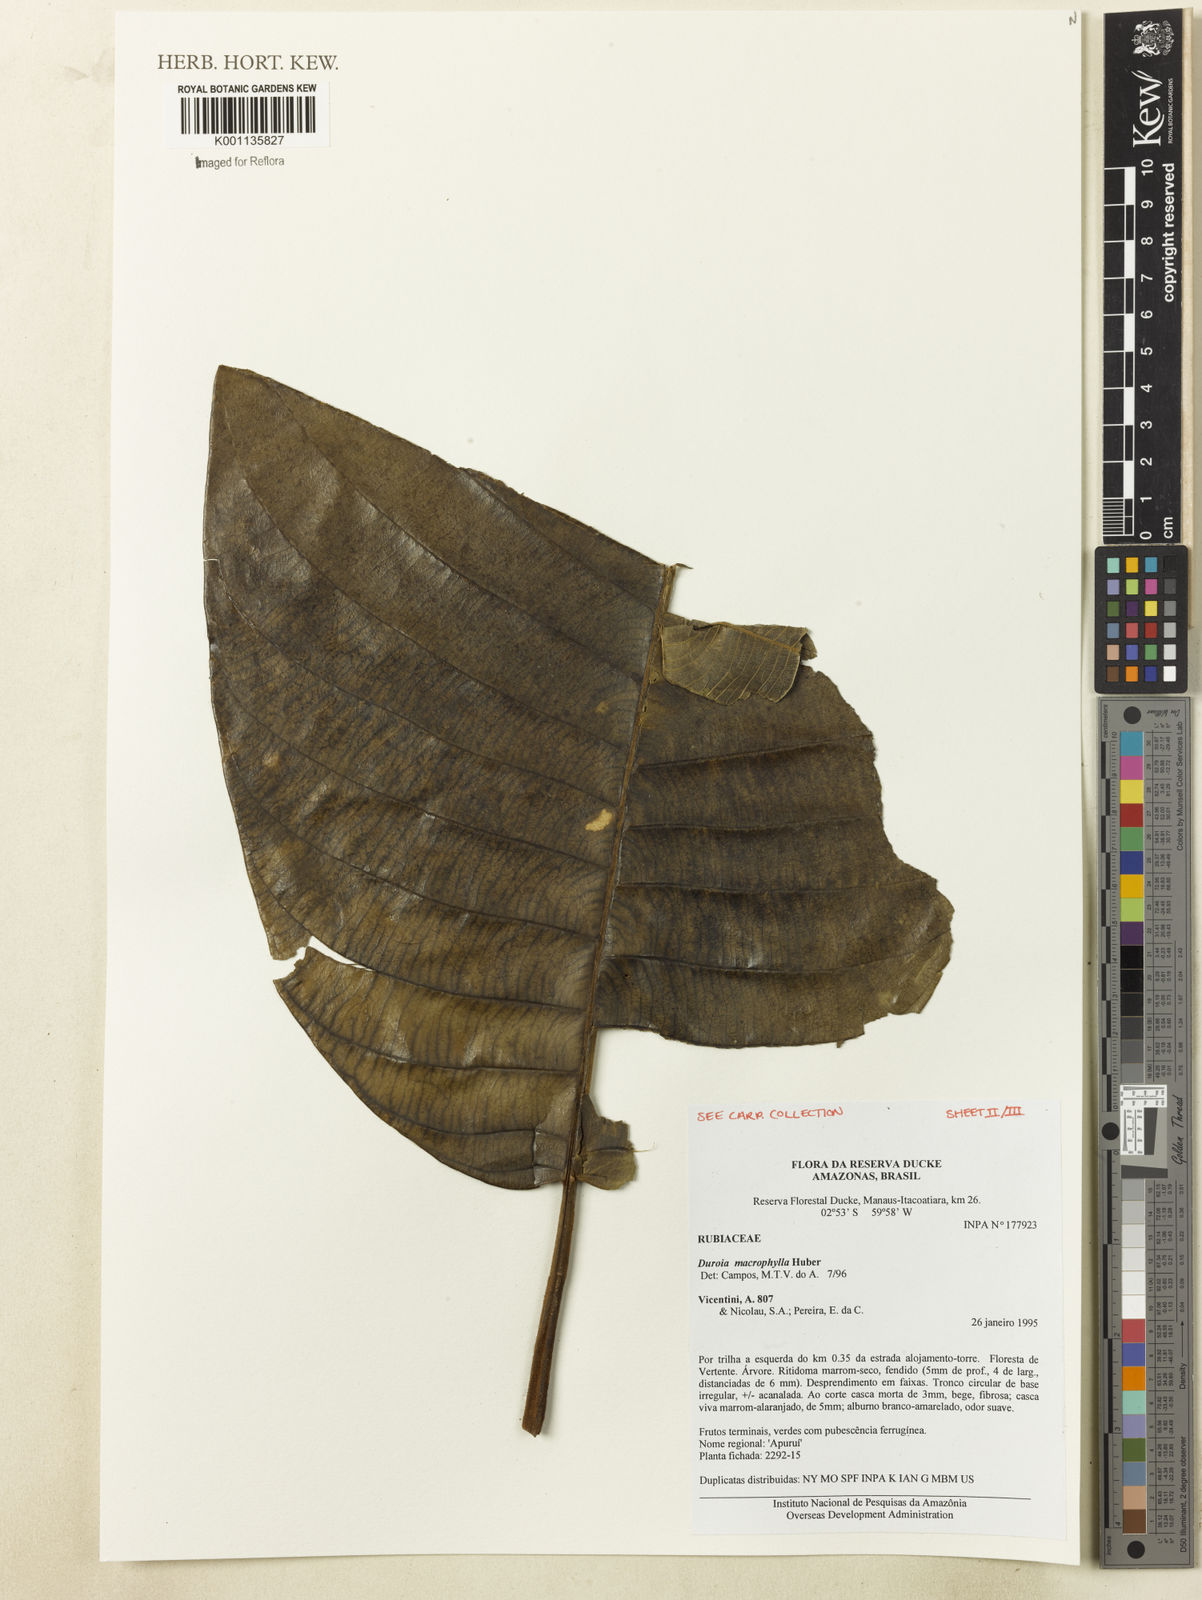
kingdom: Plantae
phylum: Tracheophyta
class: Magnoliopsida
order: Gentianales
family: Rubiaceae
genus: Duroia
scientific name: Duroia macrophylla
